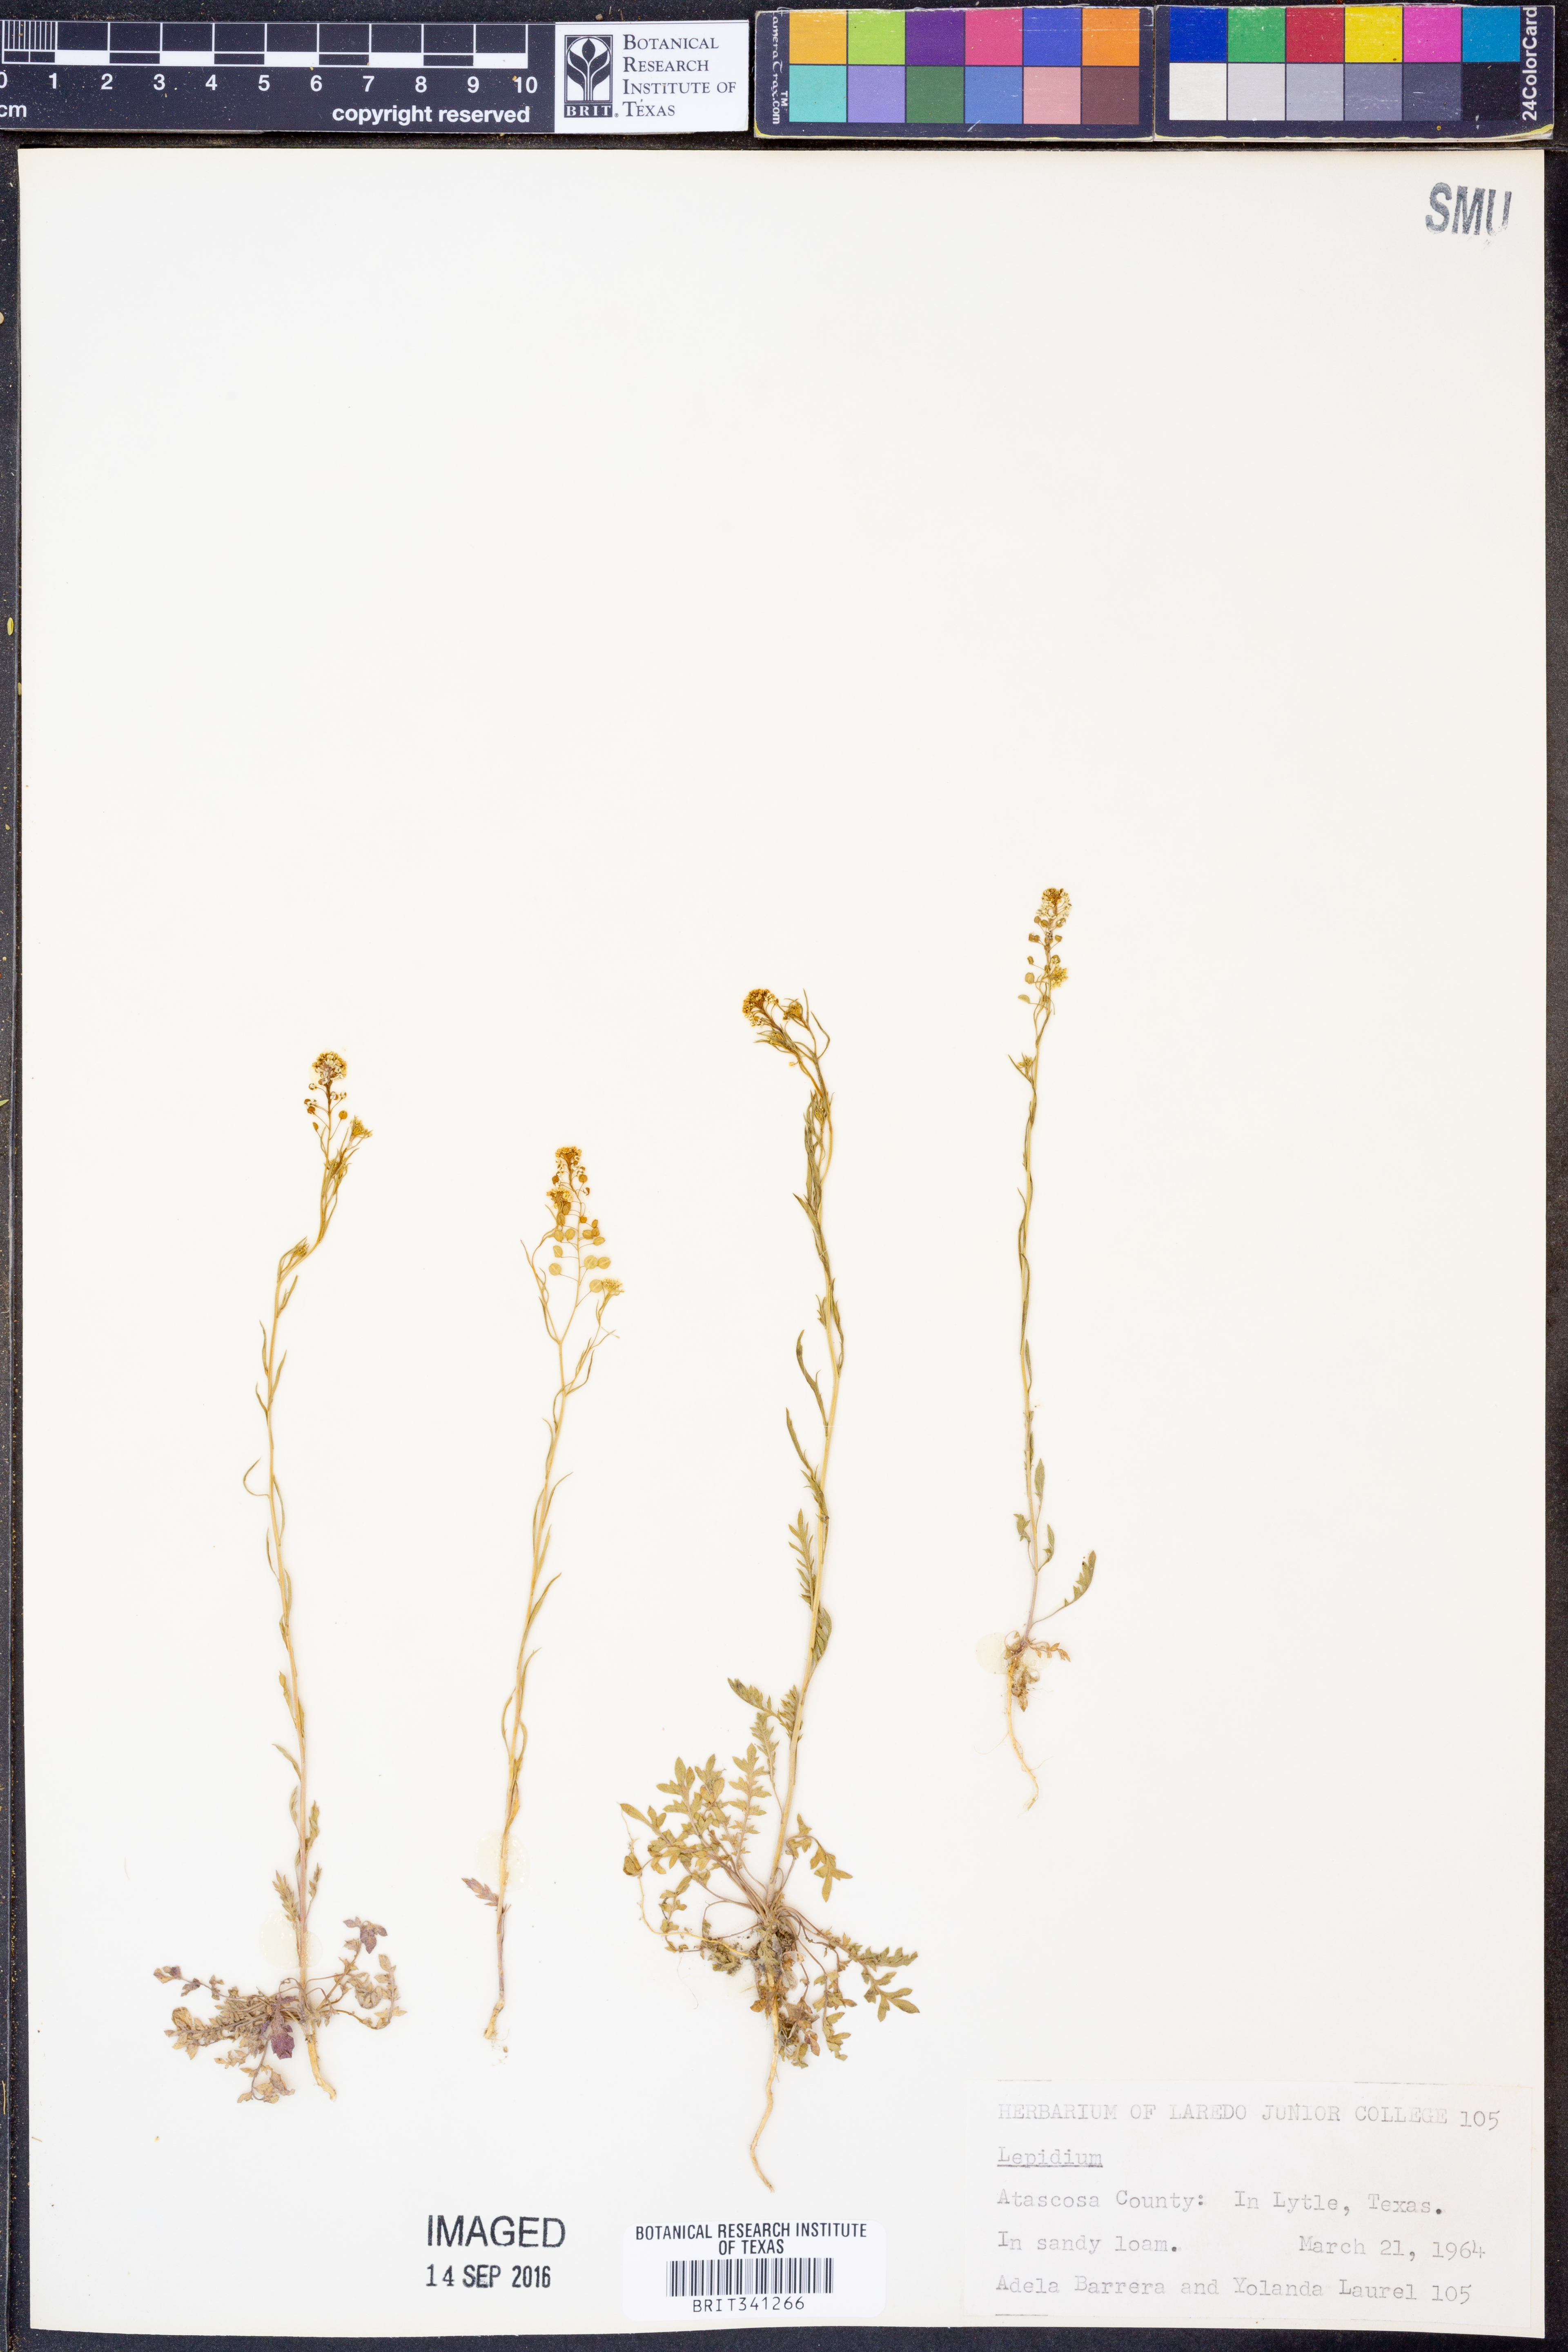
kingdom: Plantae
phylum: Tracheophyta
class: Magnoliopsida
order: Brassicales
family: Brassicaceae
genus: Lepidium
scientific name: Lepidium
